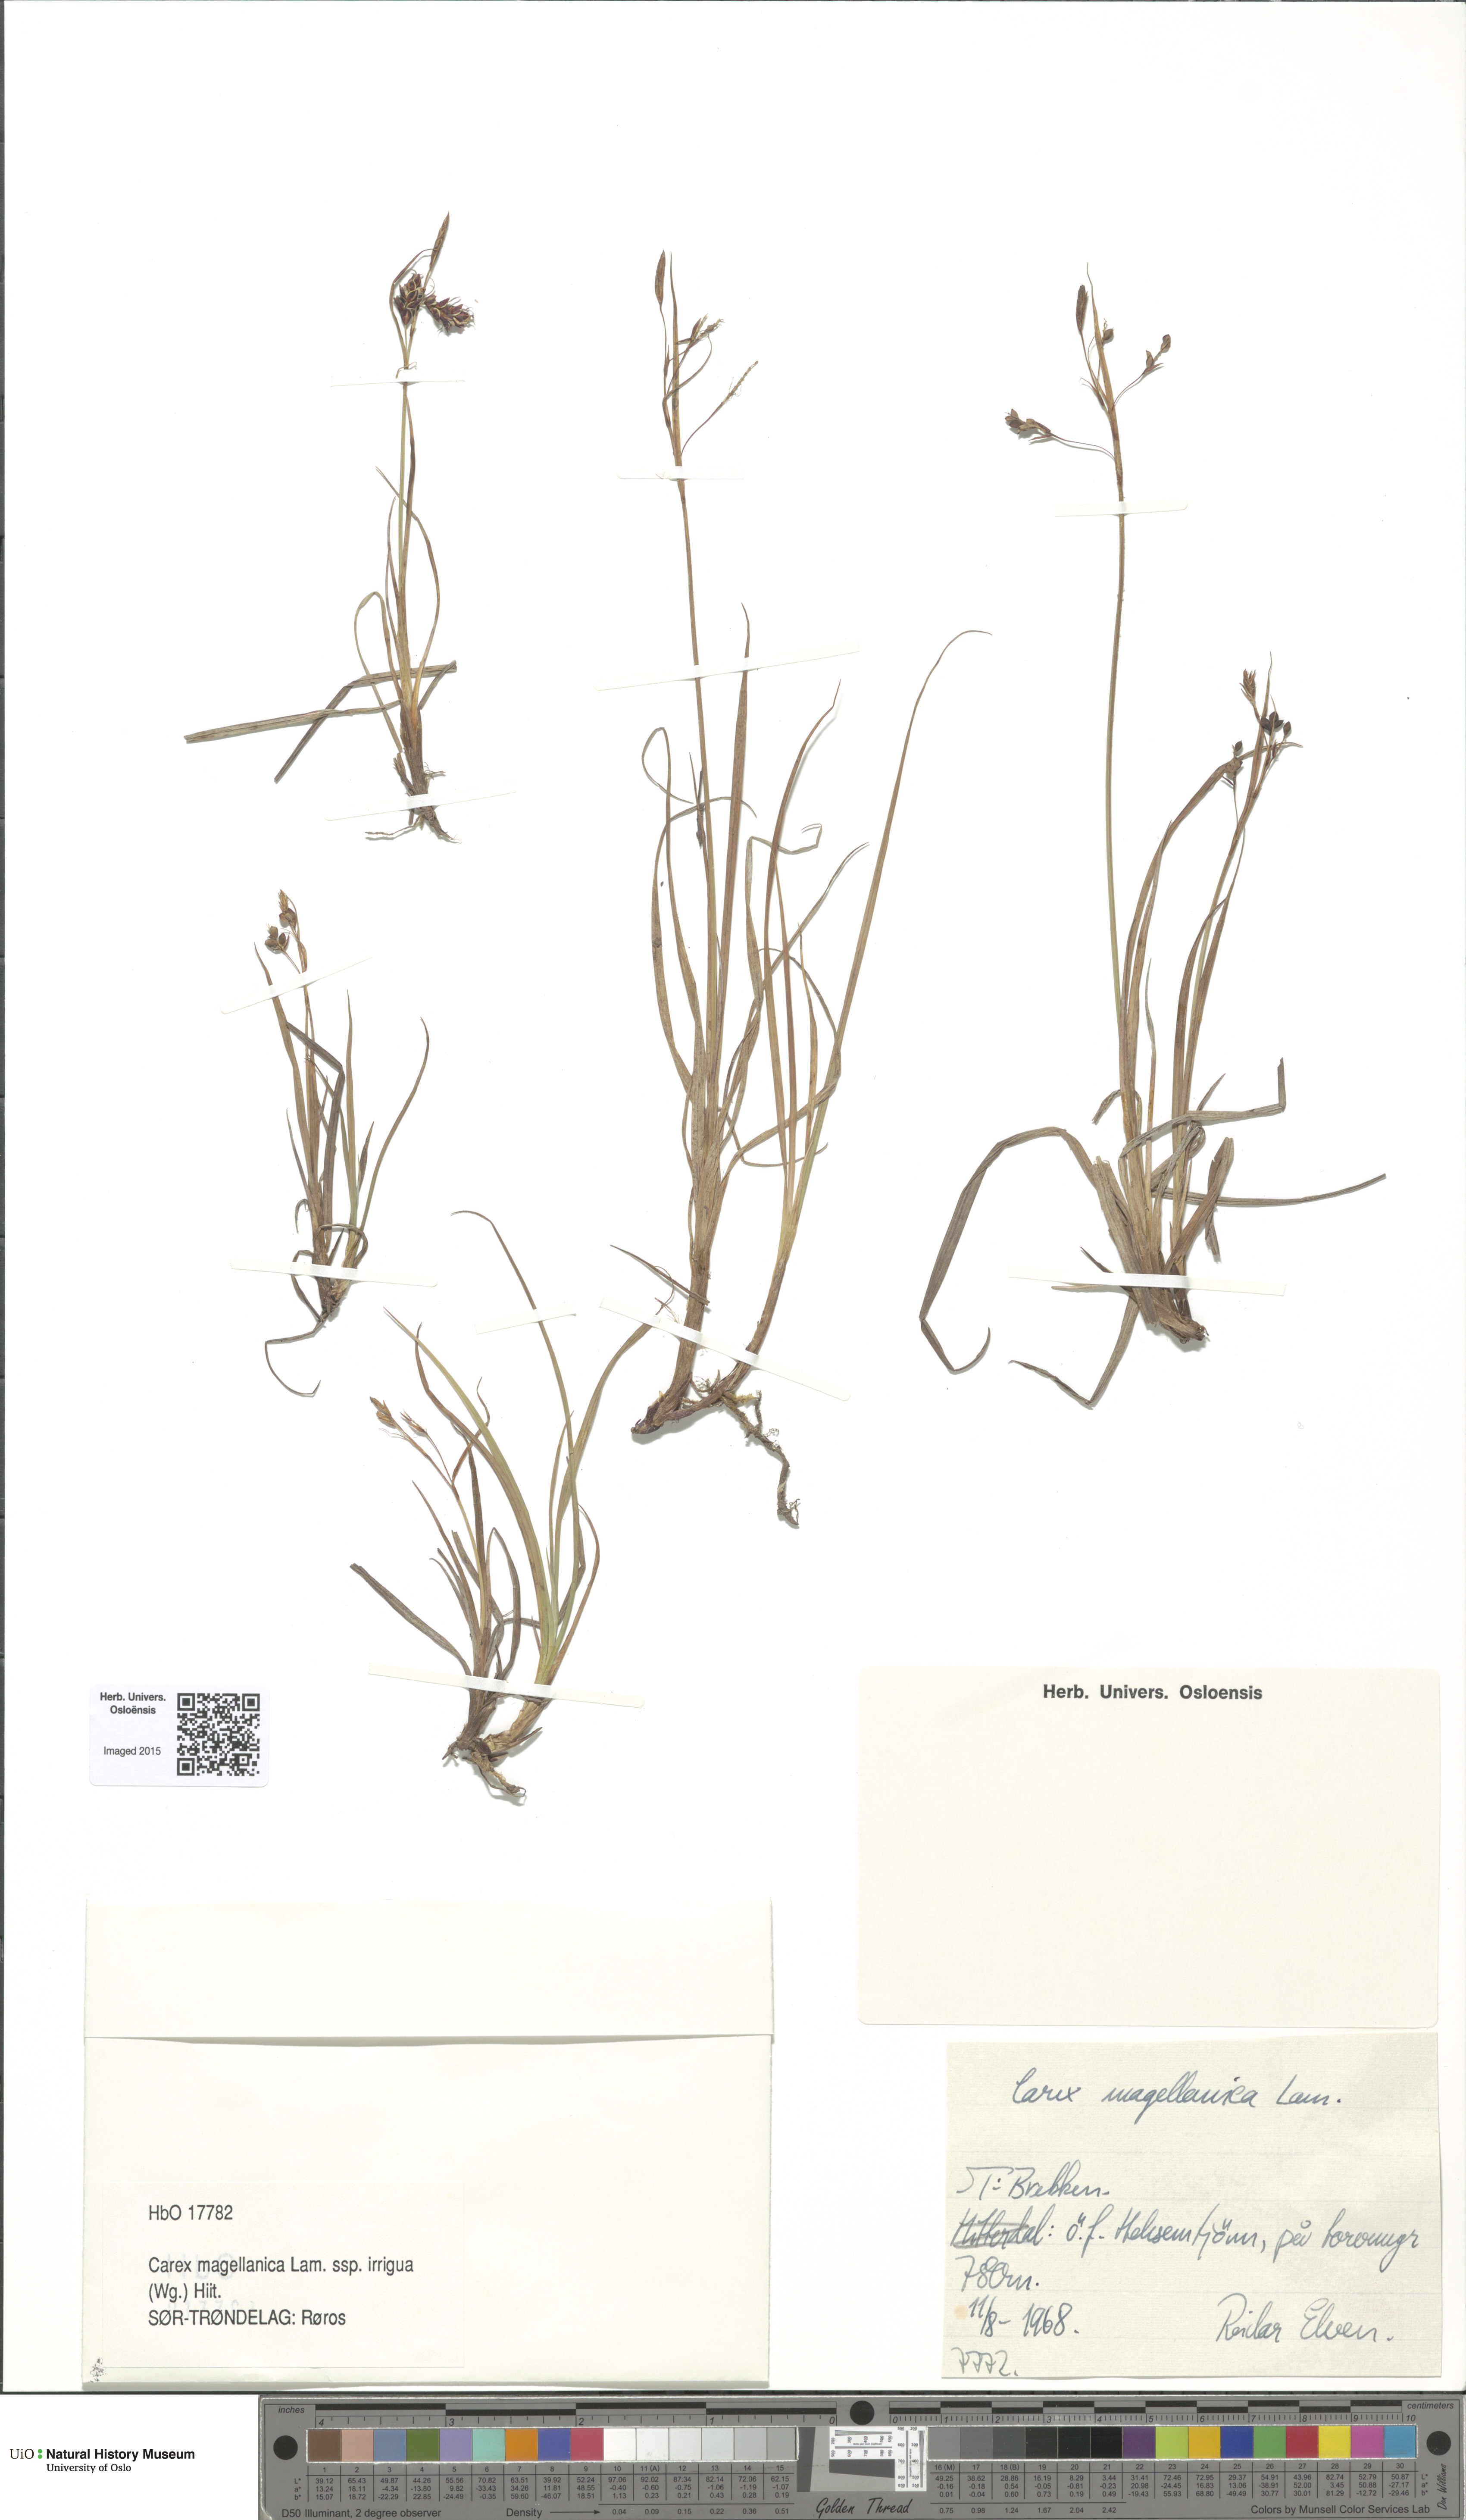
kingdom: Plantae
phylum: Tracheophyta
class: Liliopsida
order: Poales
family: Cyperaceae
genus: Carex
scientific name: Carex magellanica
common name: Bog sedge
